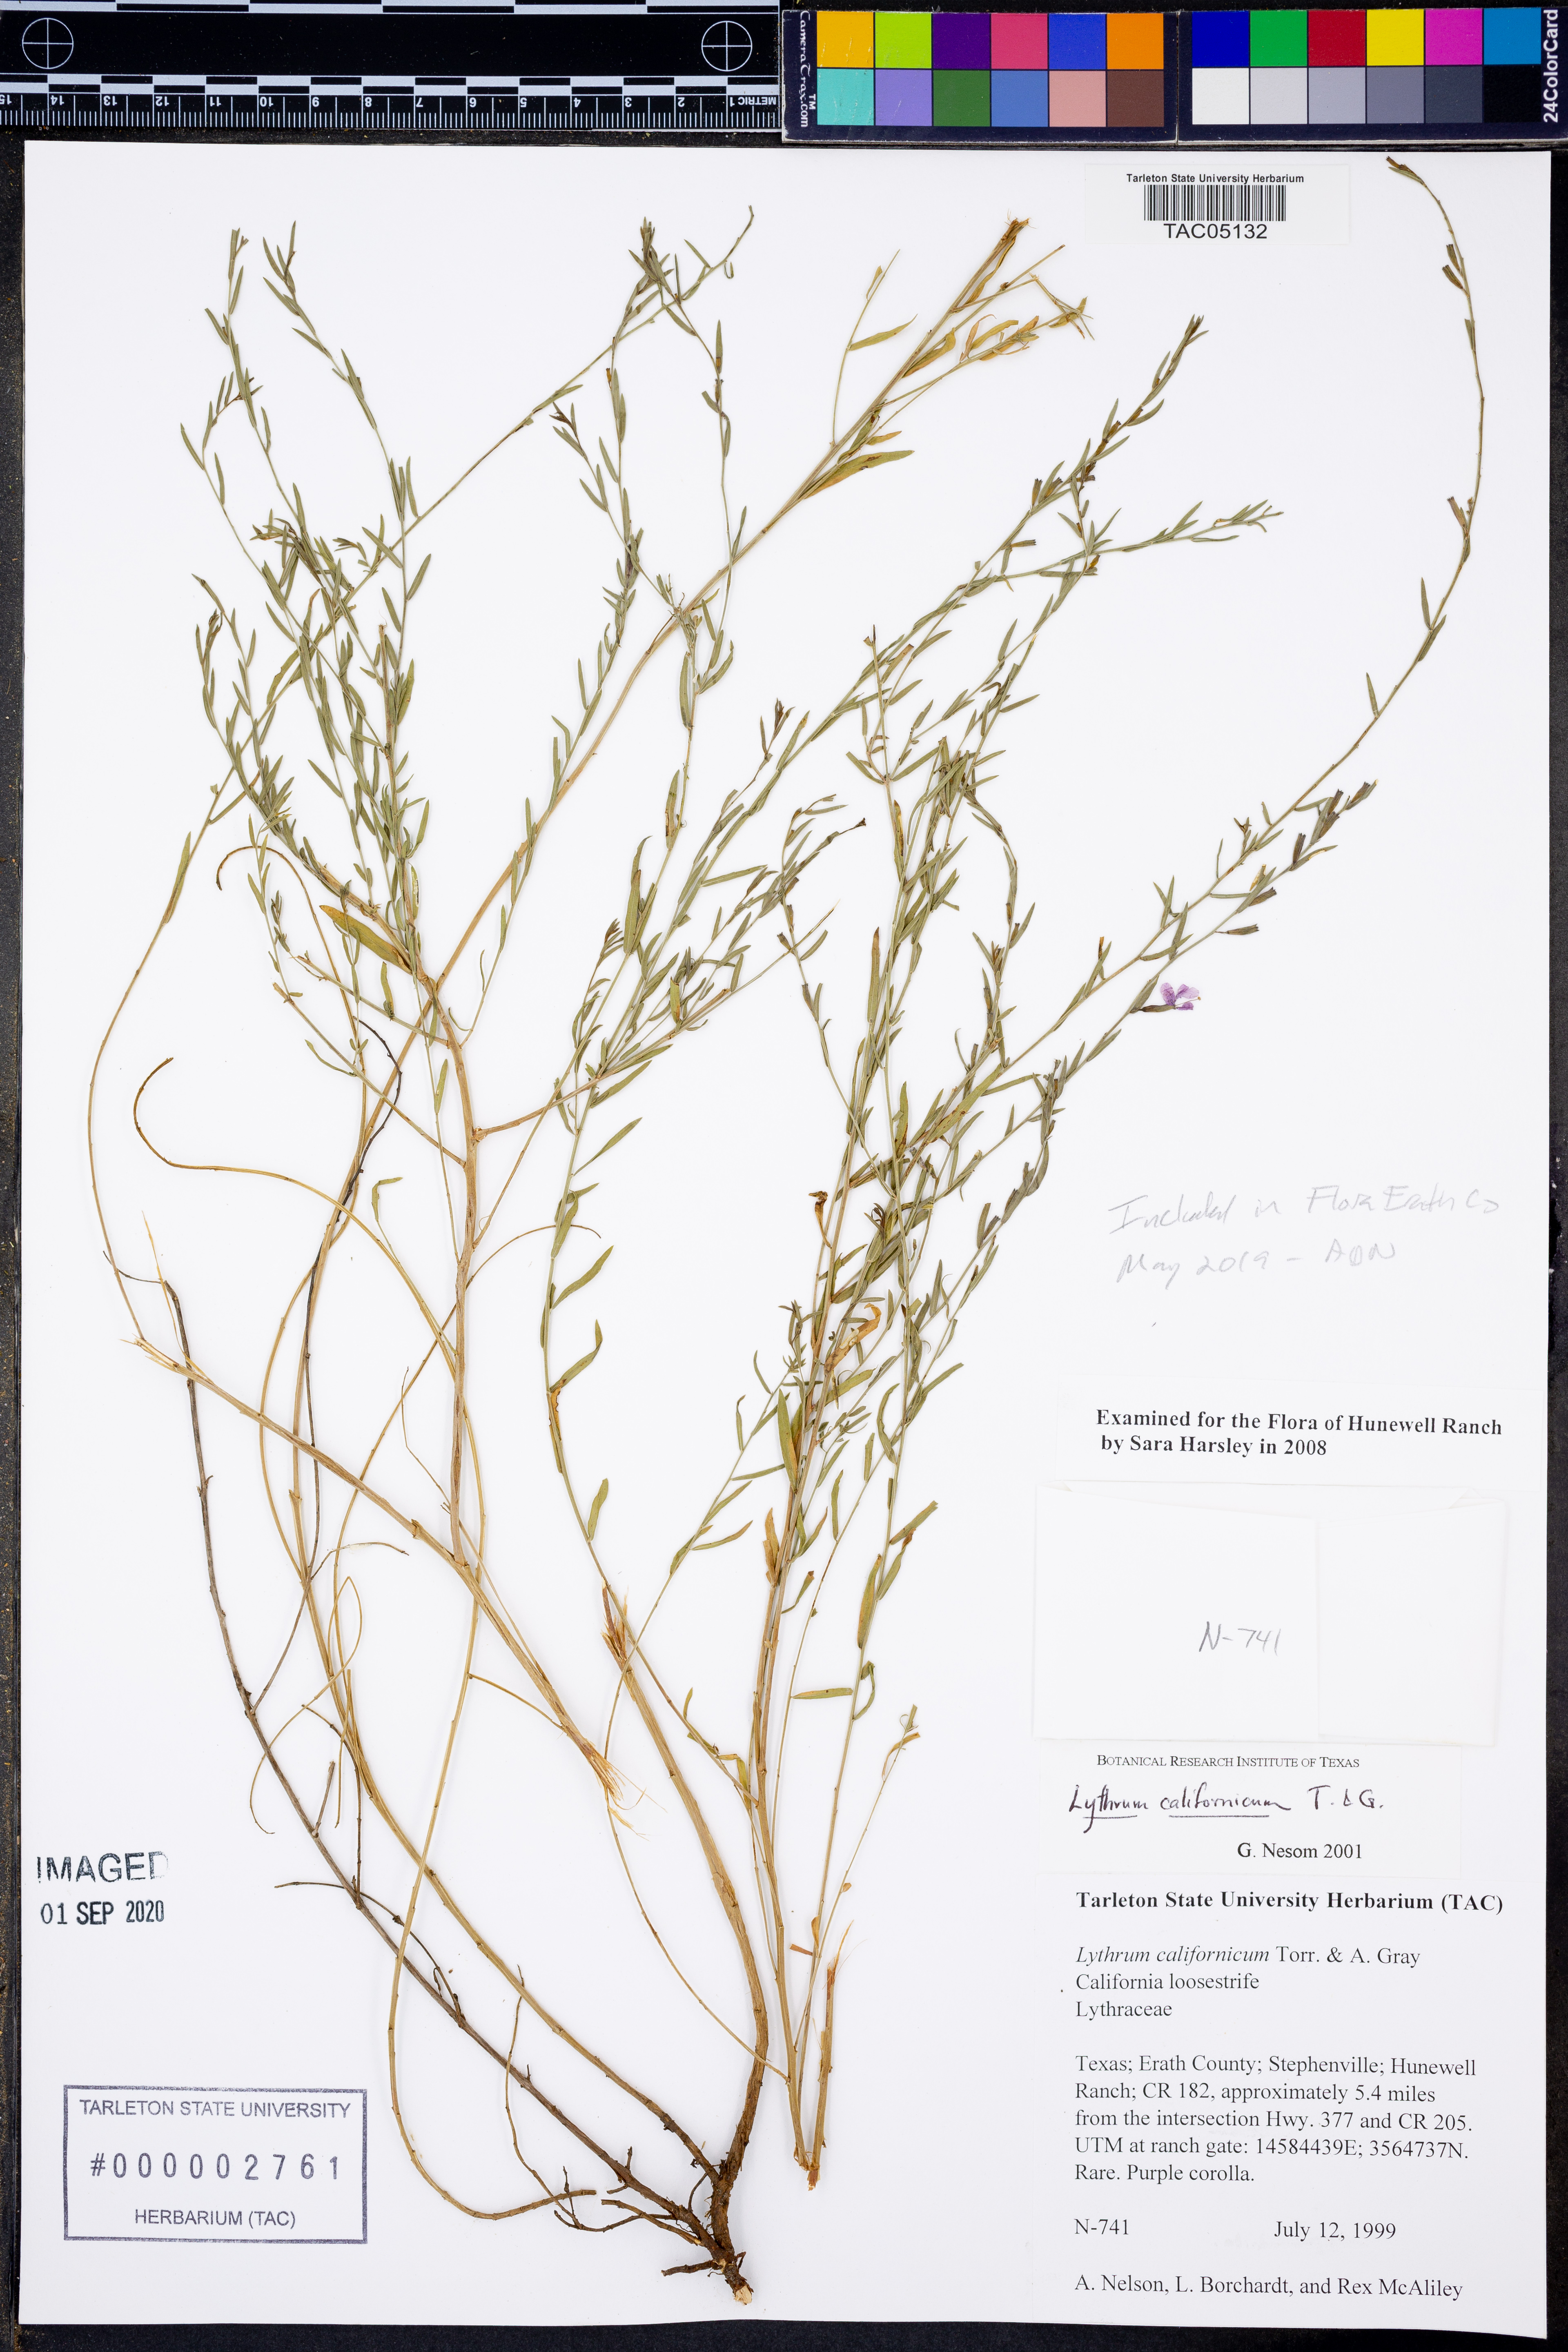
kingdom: Plantae
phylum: Tracheophyta
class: Magnoliopsida
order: Myrtales
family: Lythraceae
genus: Lythrum
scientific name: Lythrum californicum
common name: California loosestrife
